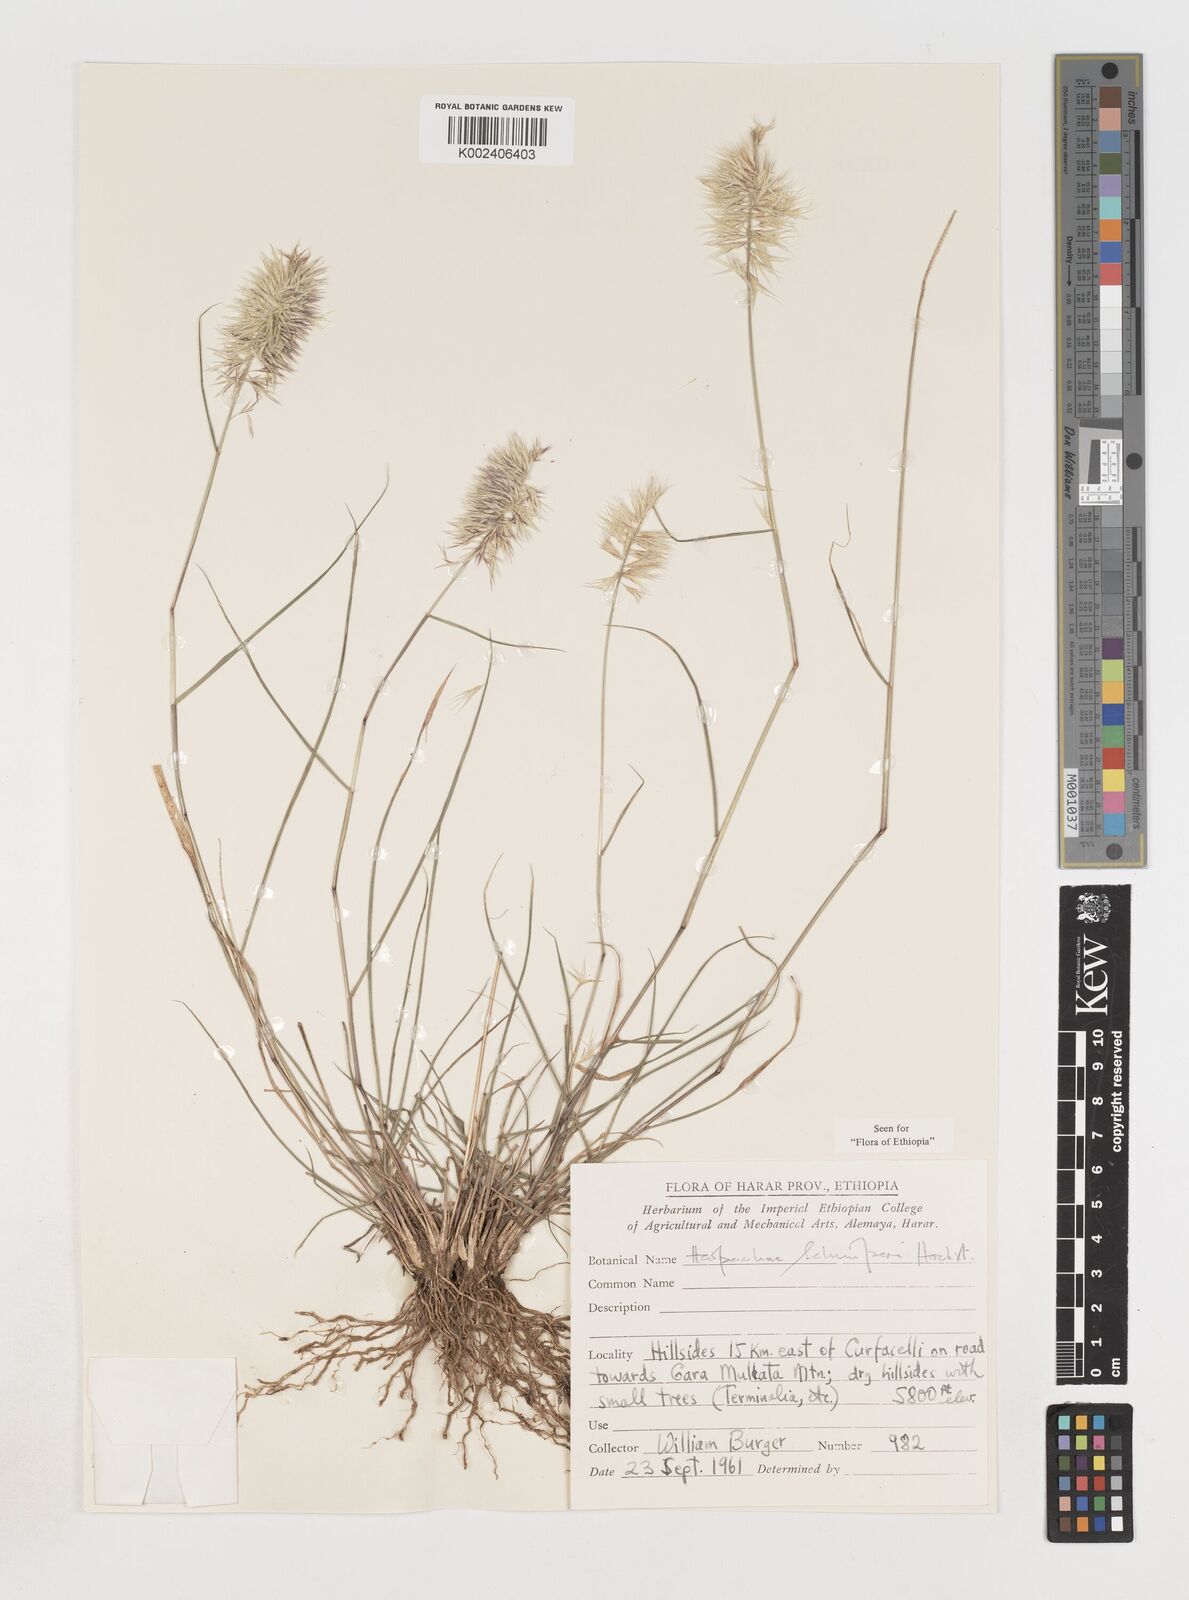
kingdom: Plantae
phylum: Tracheophyta
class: Liliopsida
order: Poales
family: Poaceae
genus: Harpachne
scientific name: Harpachne schimperi
